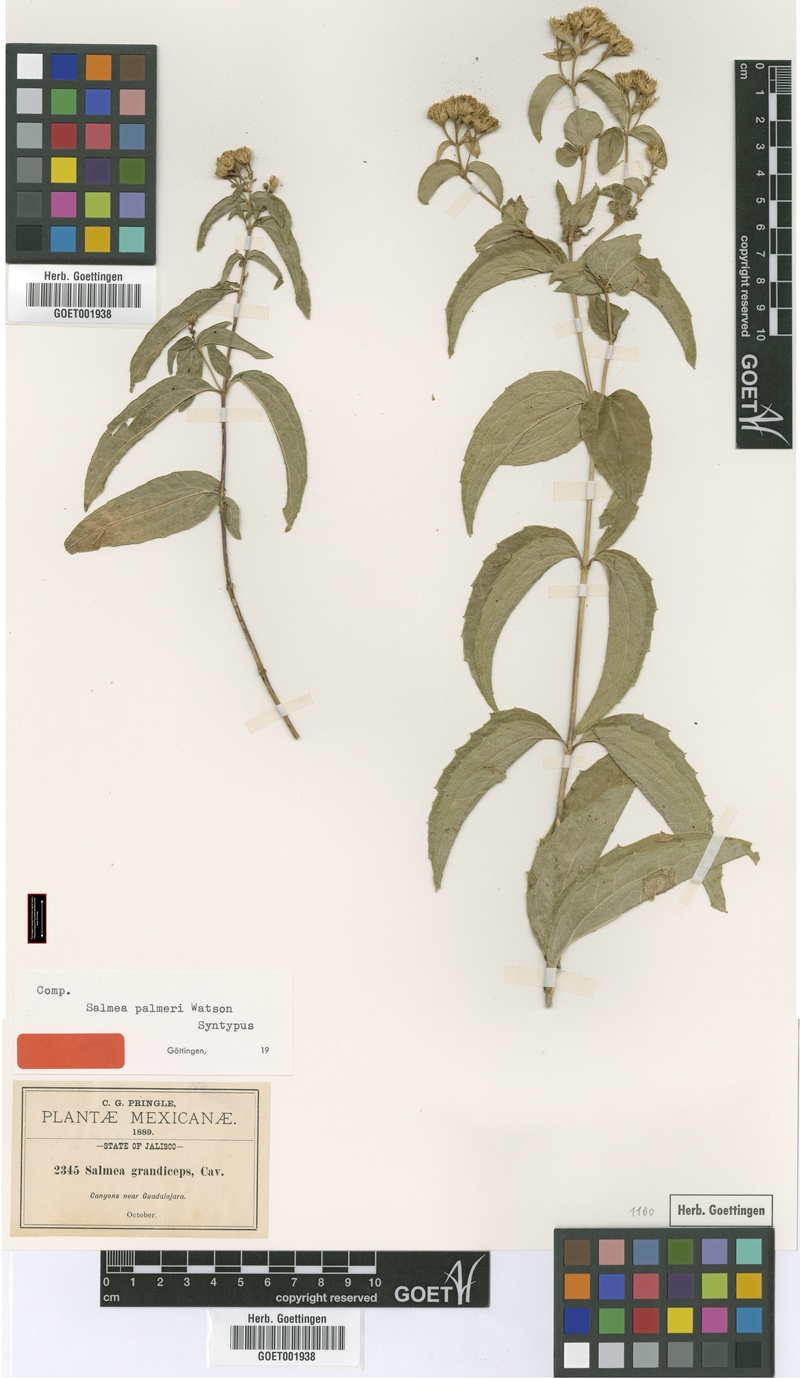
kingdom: Plantae
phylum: Tracheophyta
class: Magnoliopsida
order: Asterales
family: Asteraceae
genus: Salmea
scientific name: Salmea palmeri
